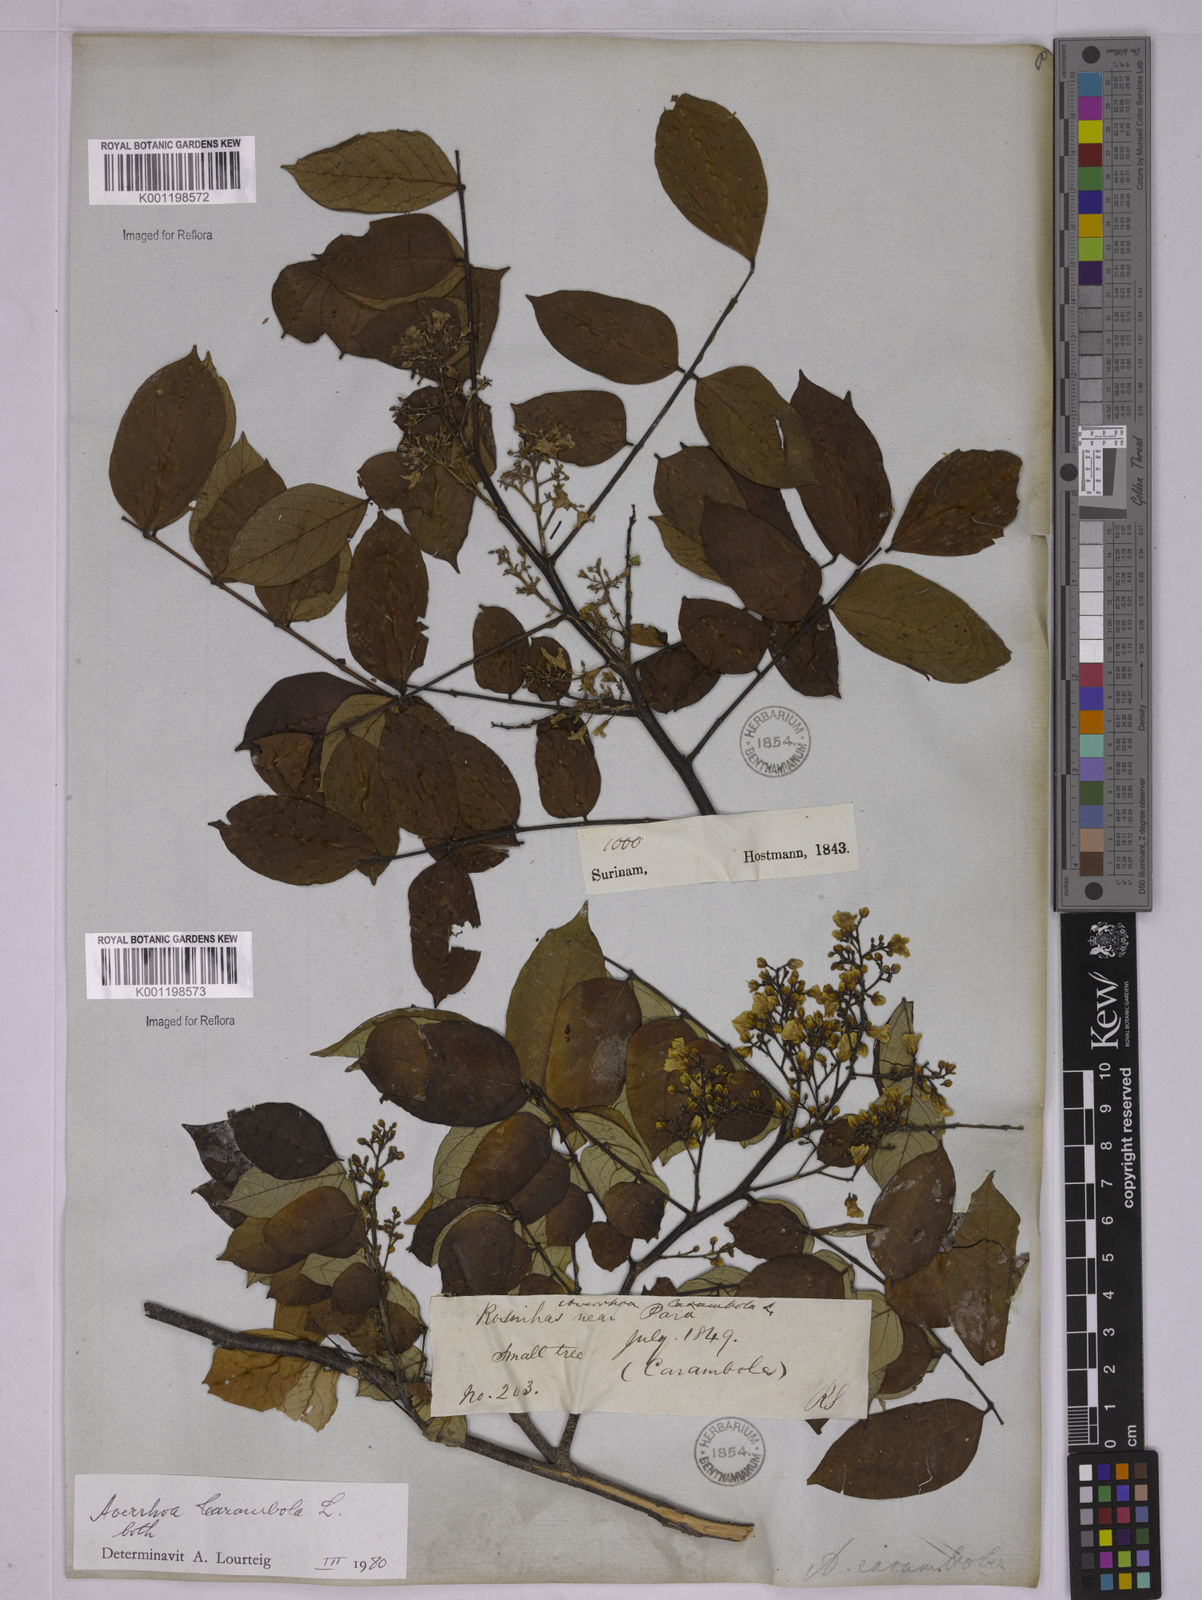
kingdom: Plantae
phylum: Tracheophyta
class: Magnoliopsida
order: Oxalidales
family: Oxalidaceae
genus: Averrhoa
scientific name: Averrhoa bilimbi
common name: Bilimbi
